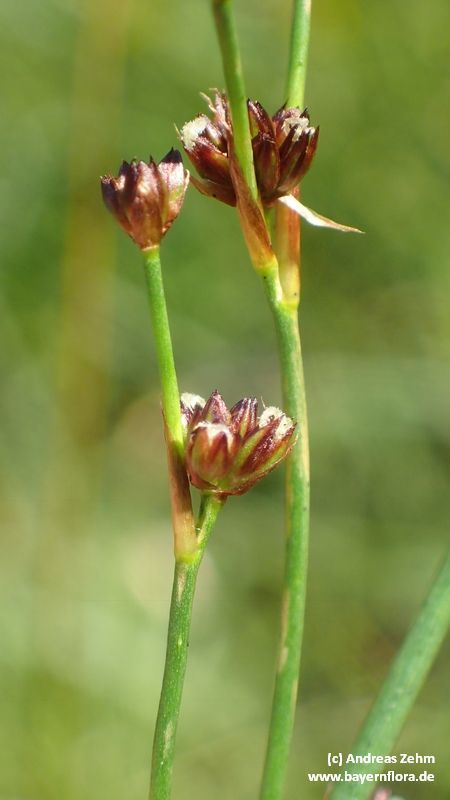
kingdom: Plantae
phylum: Tracheophyta
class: Liliopsida
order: Poales
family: Juncaceae
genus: Juncus
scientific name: Juncus alpinoarticulatus
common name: Alpine rush
